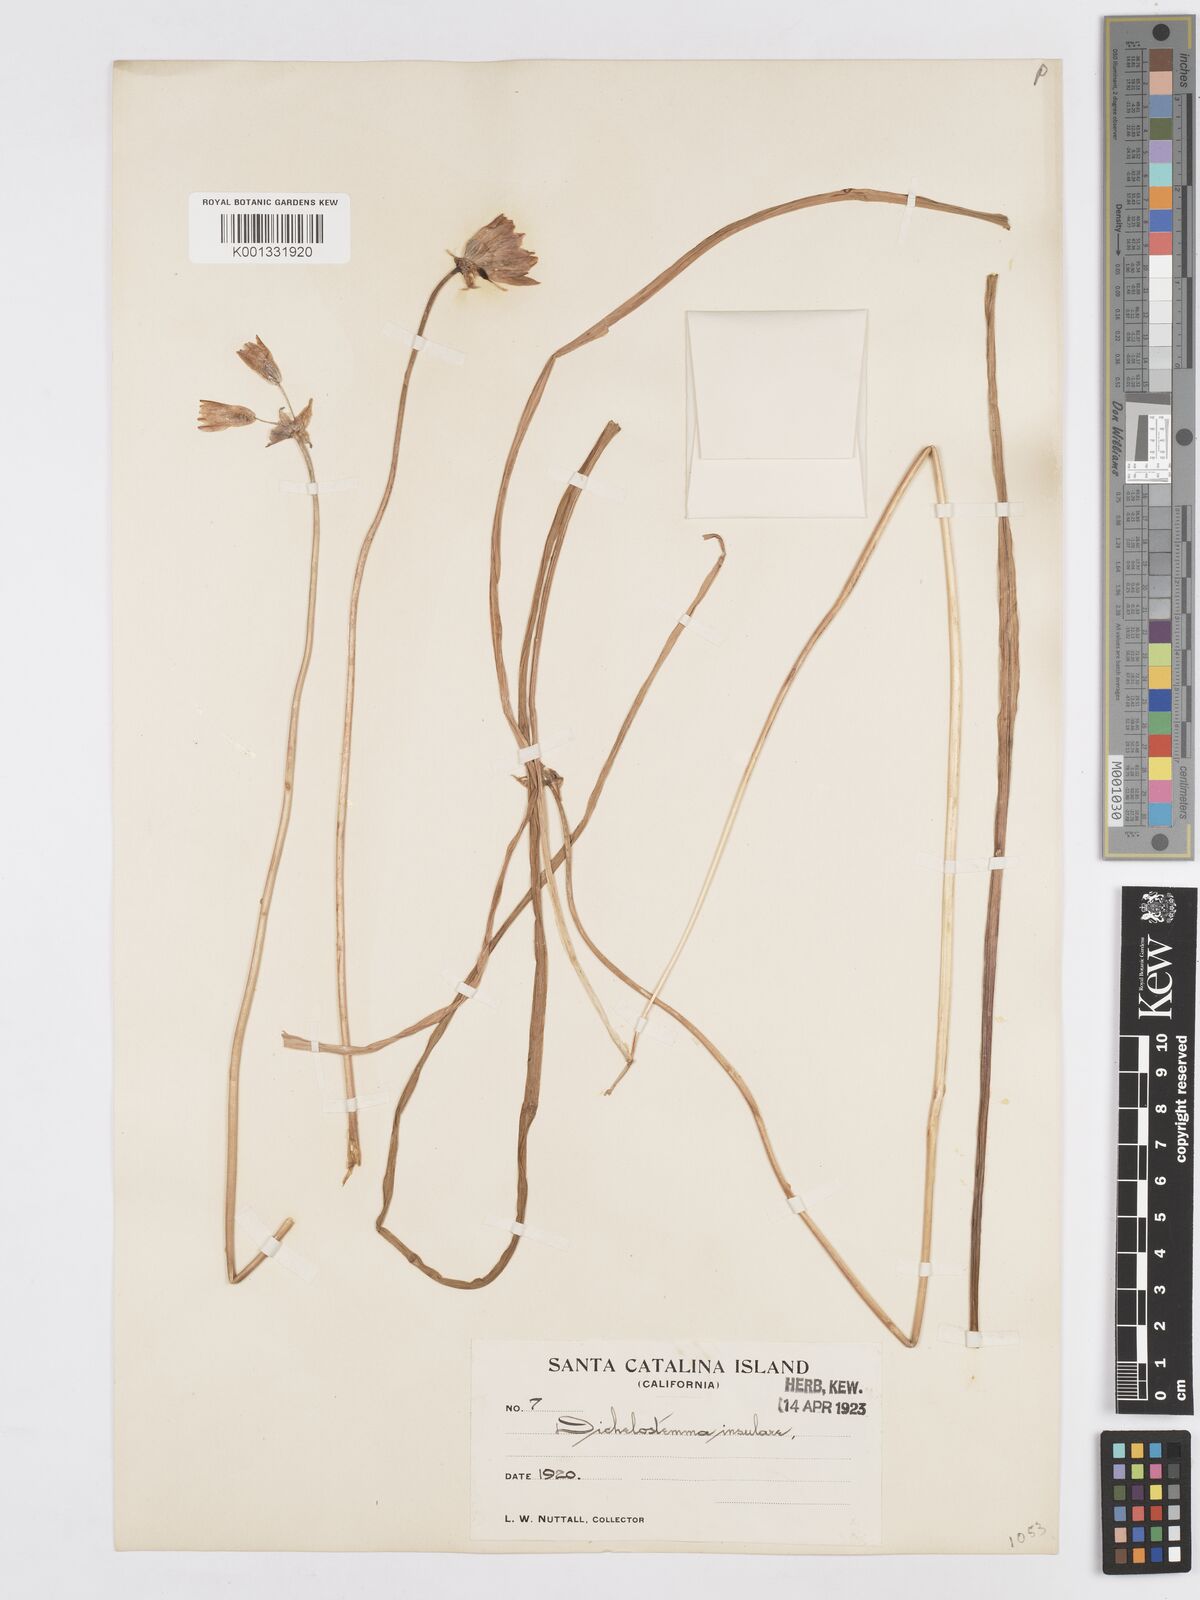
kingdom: Plantae
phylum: Tracheophyta
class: Liliopsida
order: Asparagales
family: Asparagaceae
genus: Dichelostemma
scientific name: Dichelostemma congestum
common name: Fork-tooth ookow
